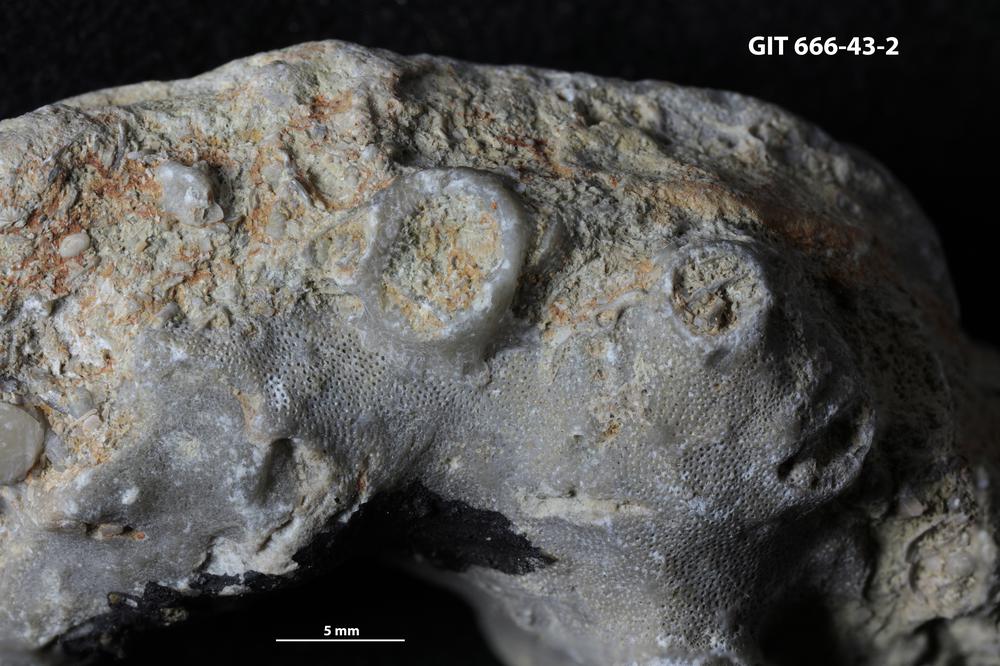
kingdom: Animalia
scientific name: Animalia
